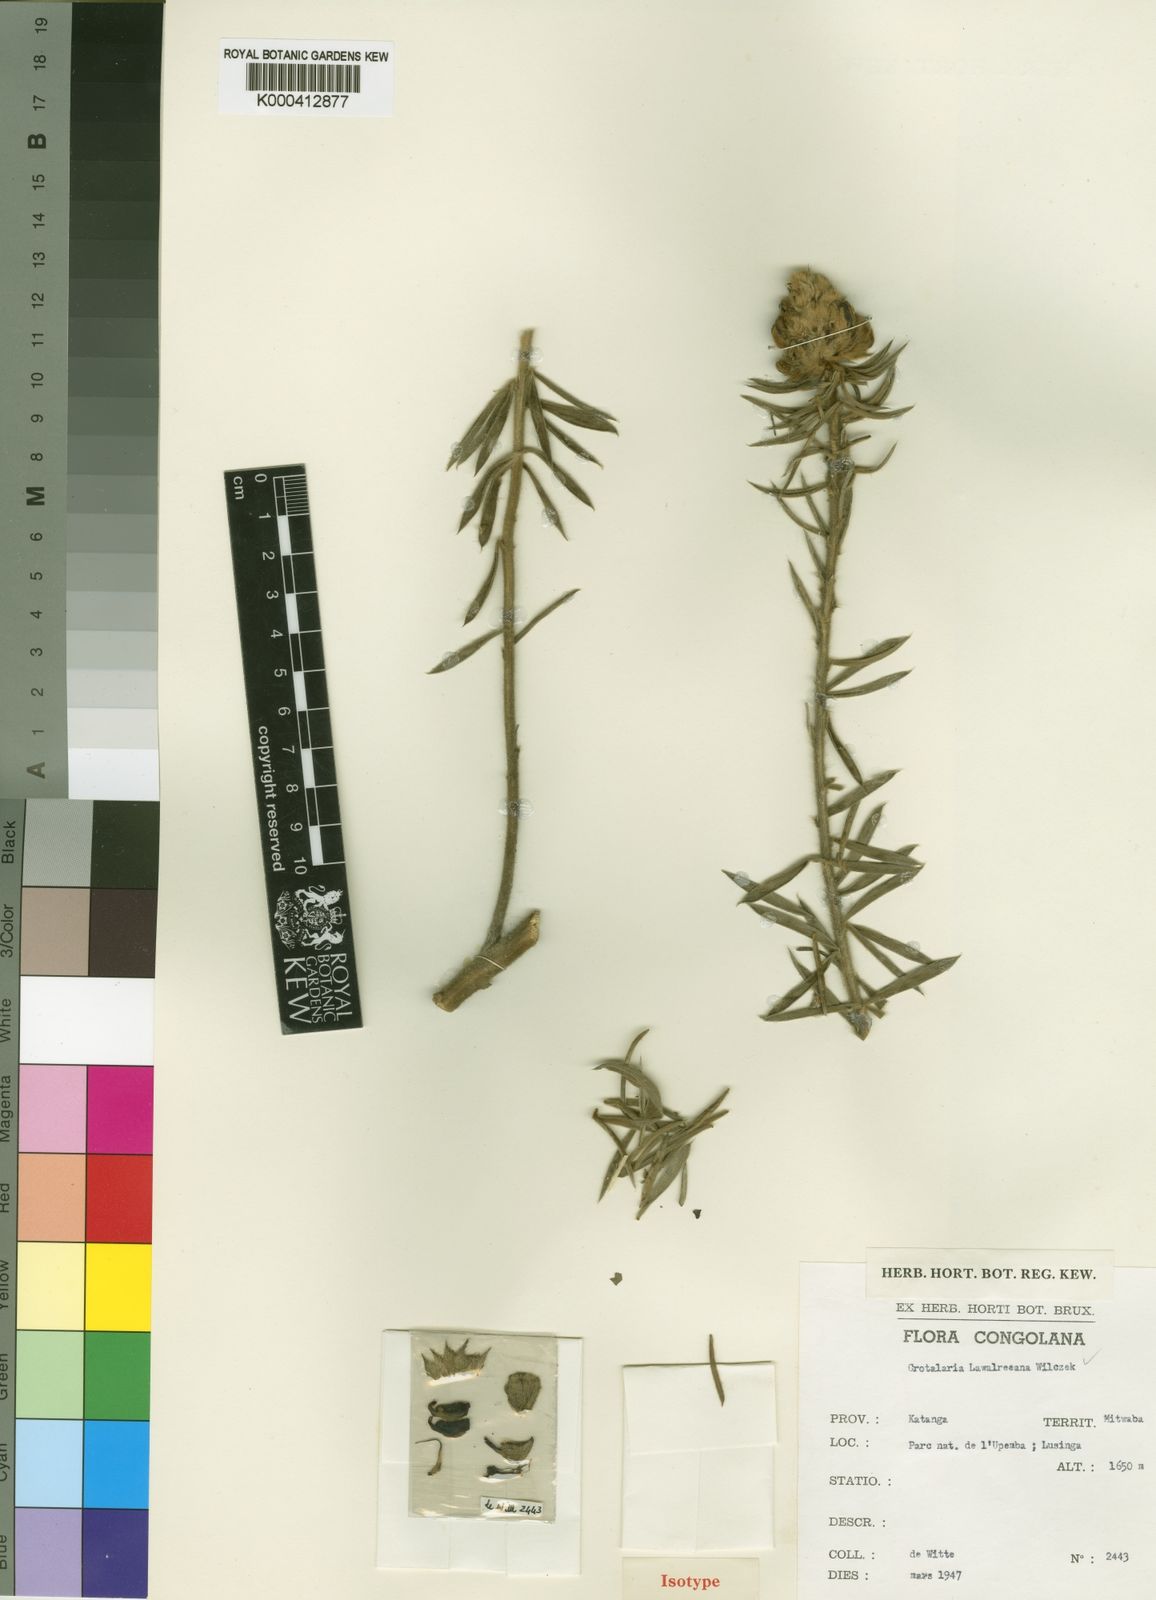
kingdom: Plantae
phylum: Tracheophyta
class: Magnoliopsida
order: Fabales
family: Fabaceae
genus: Crotalaria
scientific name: Crotalaria lawalreeana
